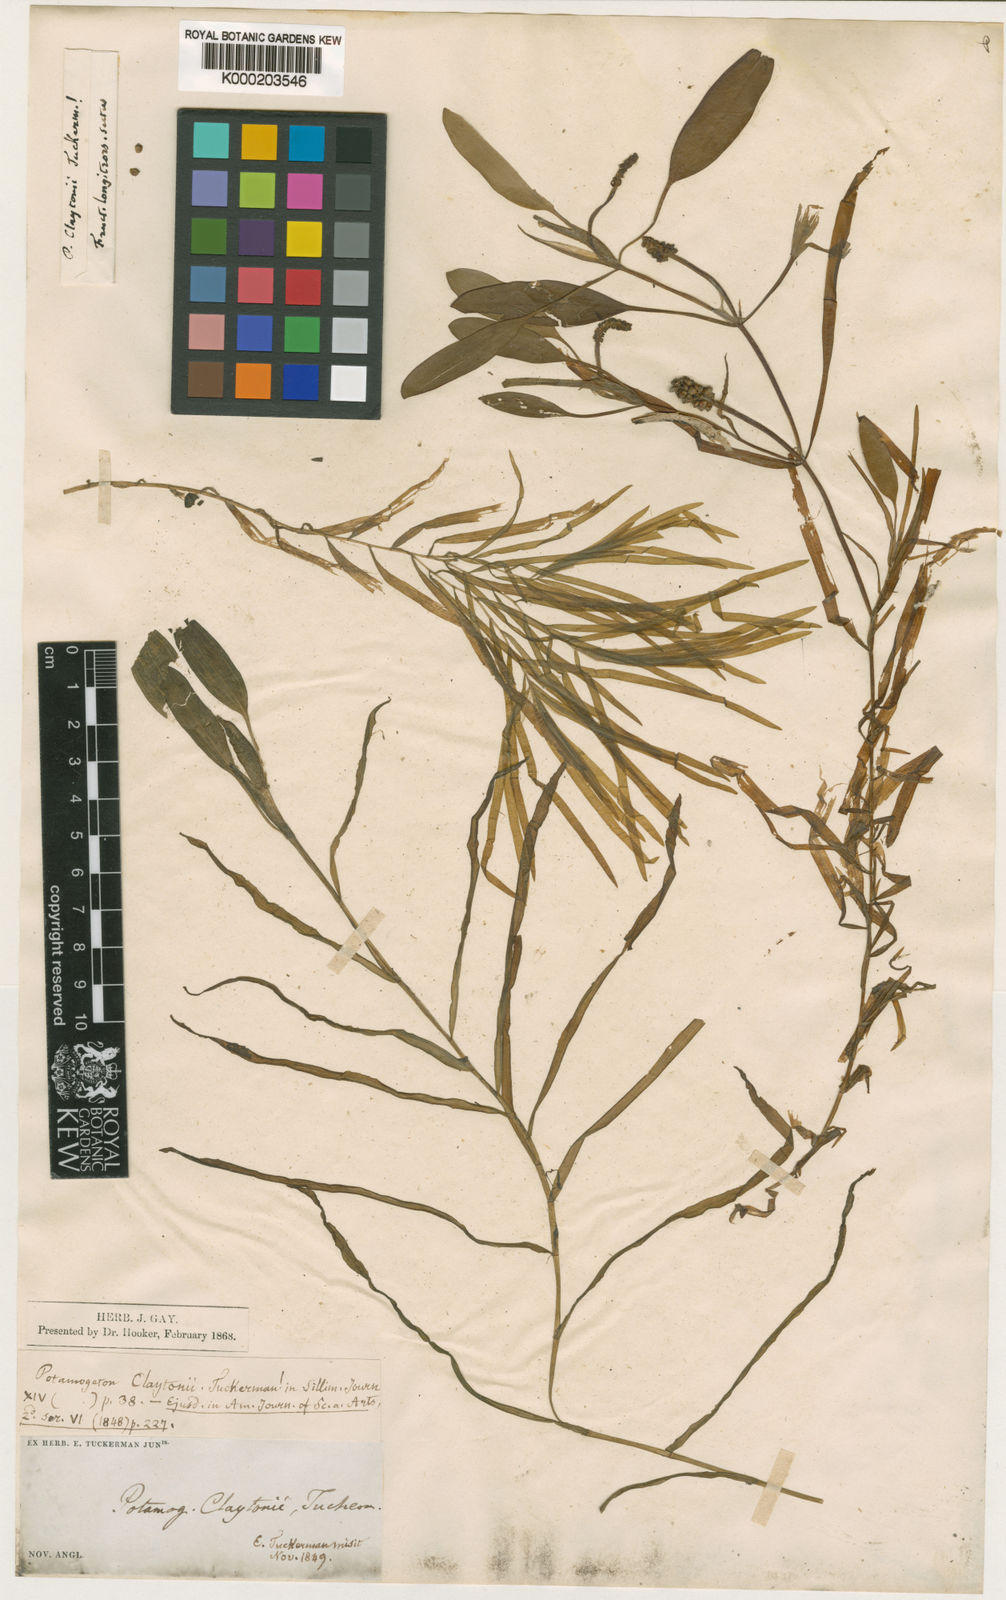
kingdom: Plantae
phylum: Tracheophyta
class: Liliopsida
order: Alismatales
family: Potamogetonaceae
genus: Potamogeton
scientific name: Potamogeton epihydrus
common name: American pondweed
